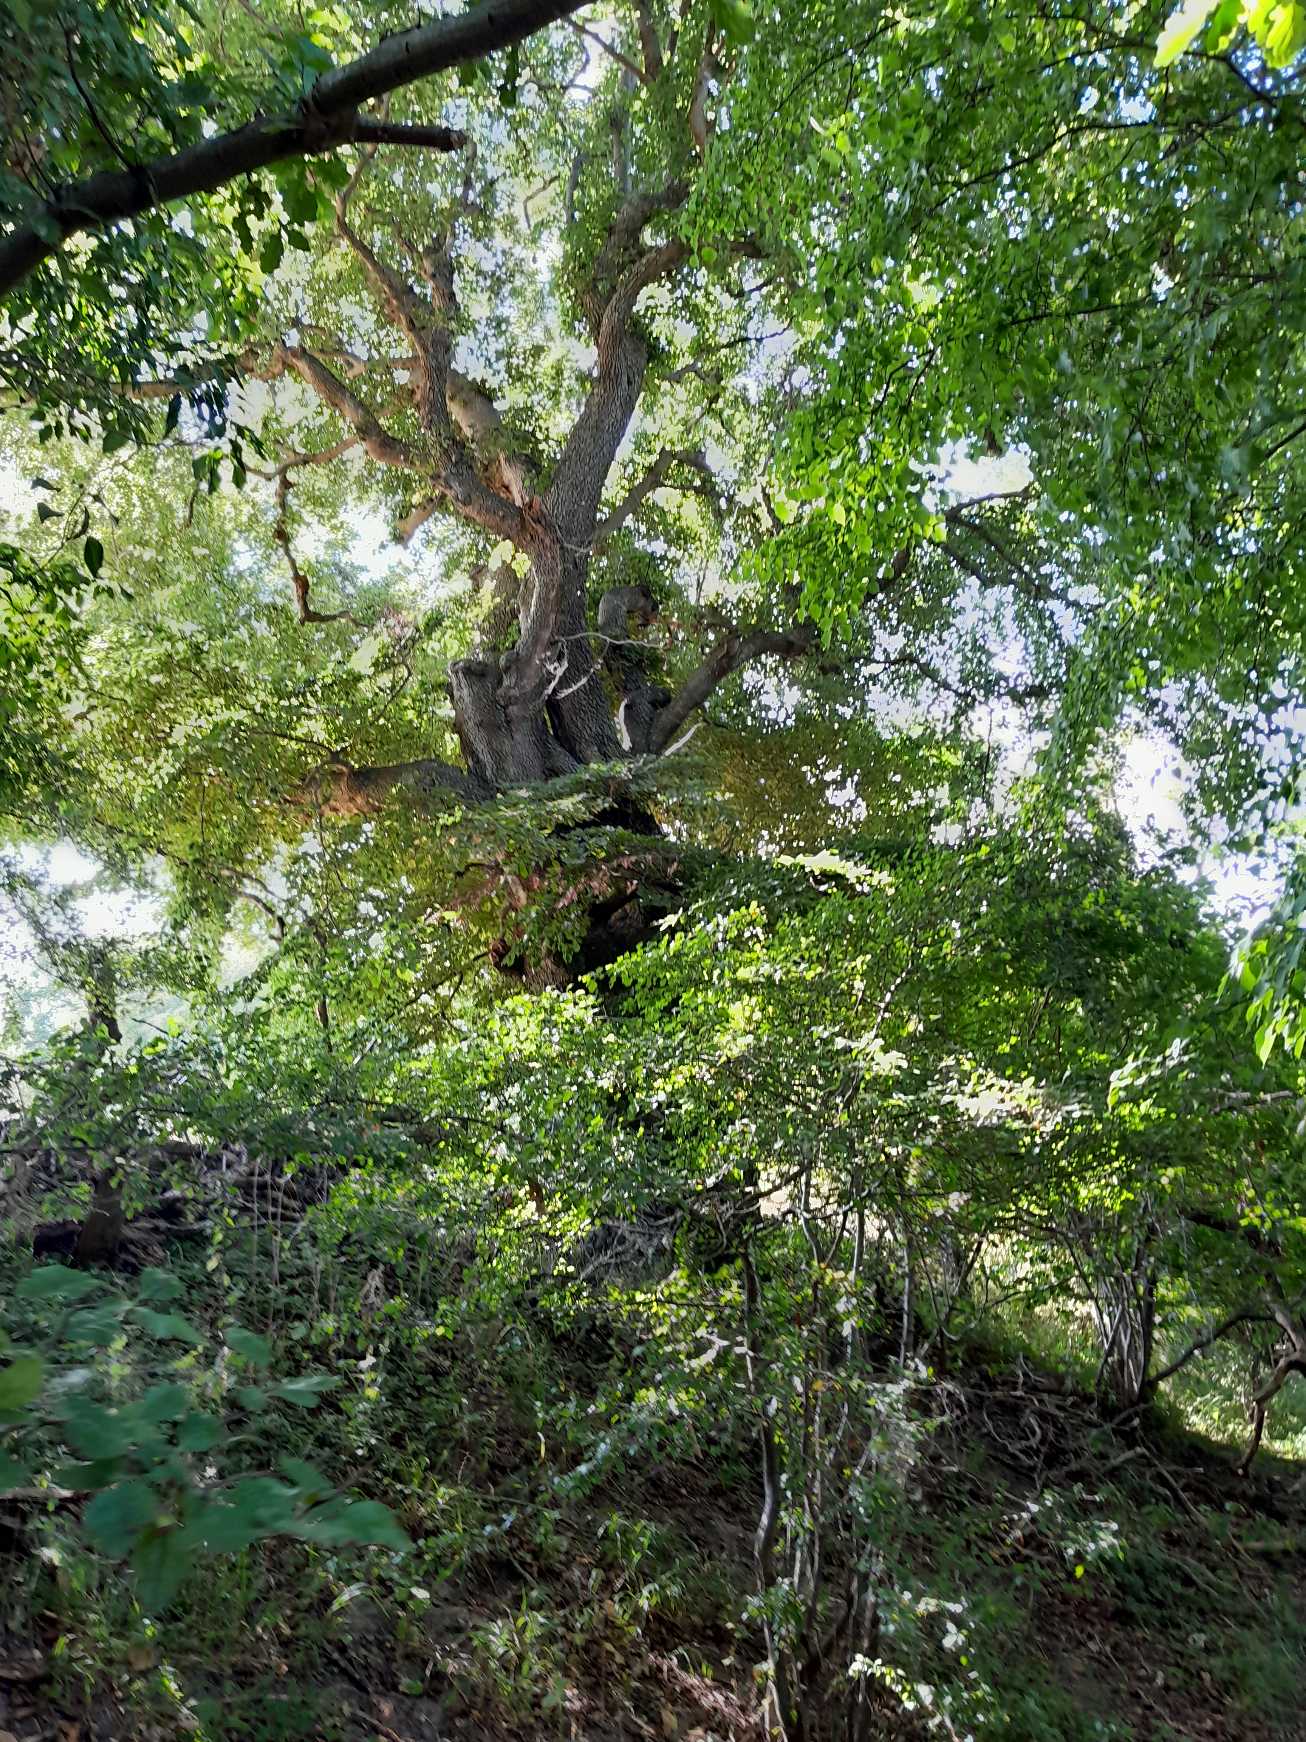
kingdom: Plantae
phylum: Tracheophyta
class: Magnoliopsida
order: Fagales
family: Fagaceae
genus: Fagus
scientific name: Fagus sylvatica
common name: Bøg
